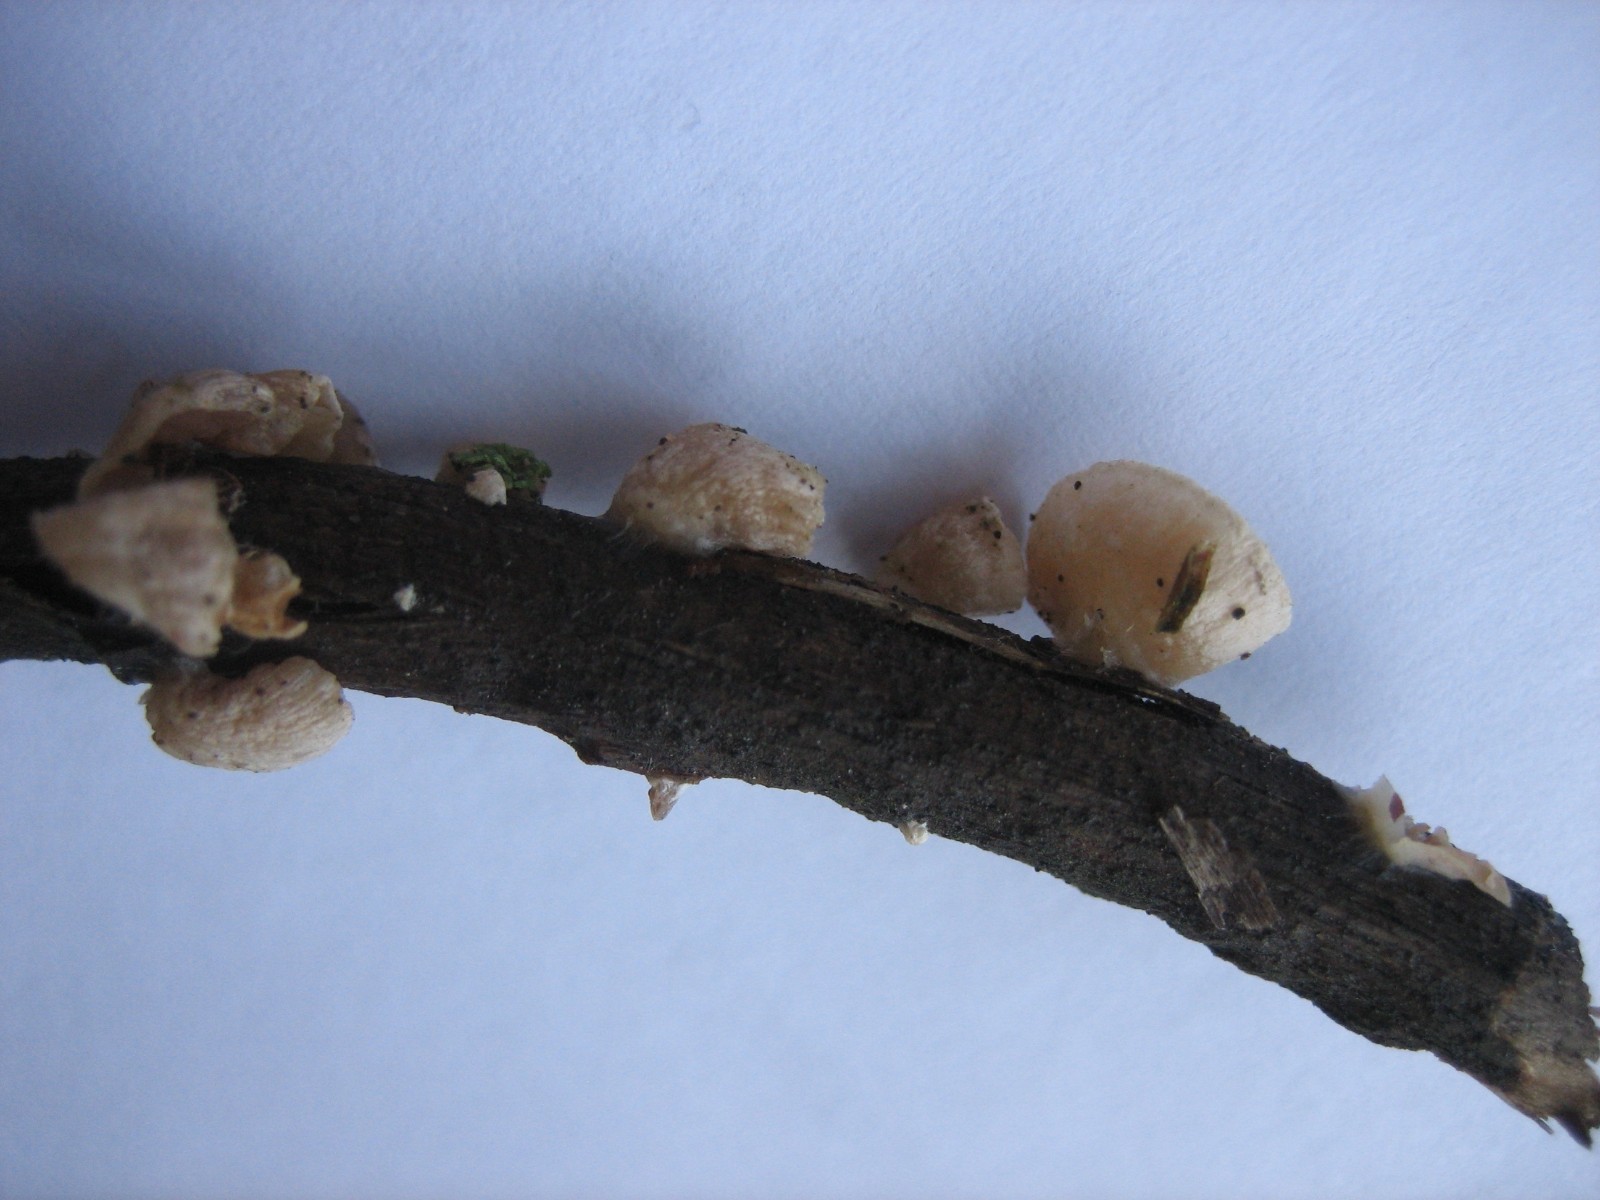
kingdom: Fungi
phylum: Basidiomycota
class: Agaricomycetes
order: Agaricales
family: Pleurotaceae
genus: Hohenbuehelia
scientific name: Hohenbuehelia
